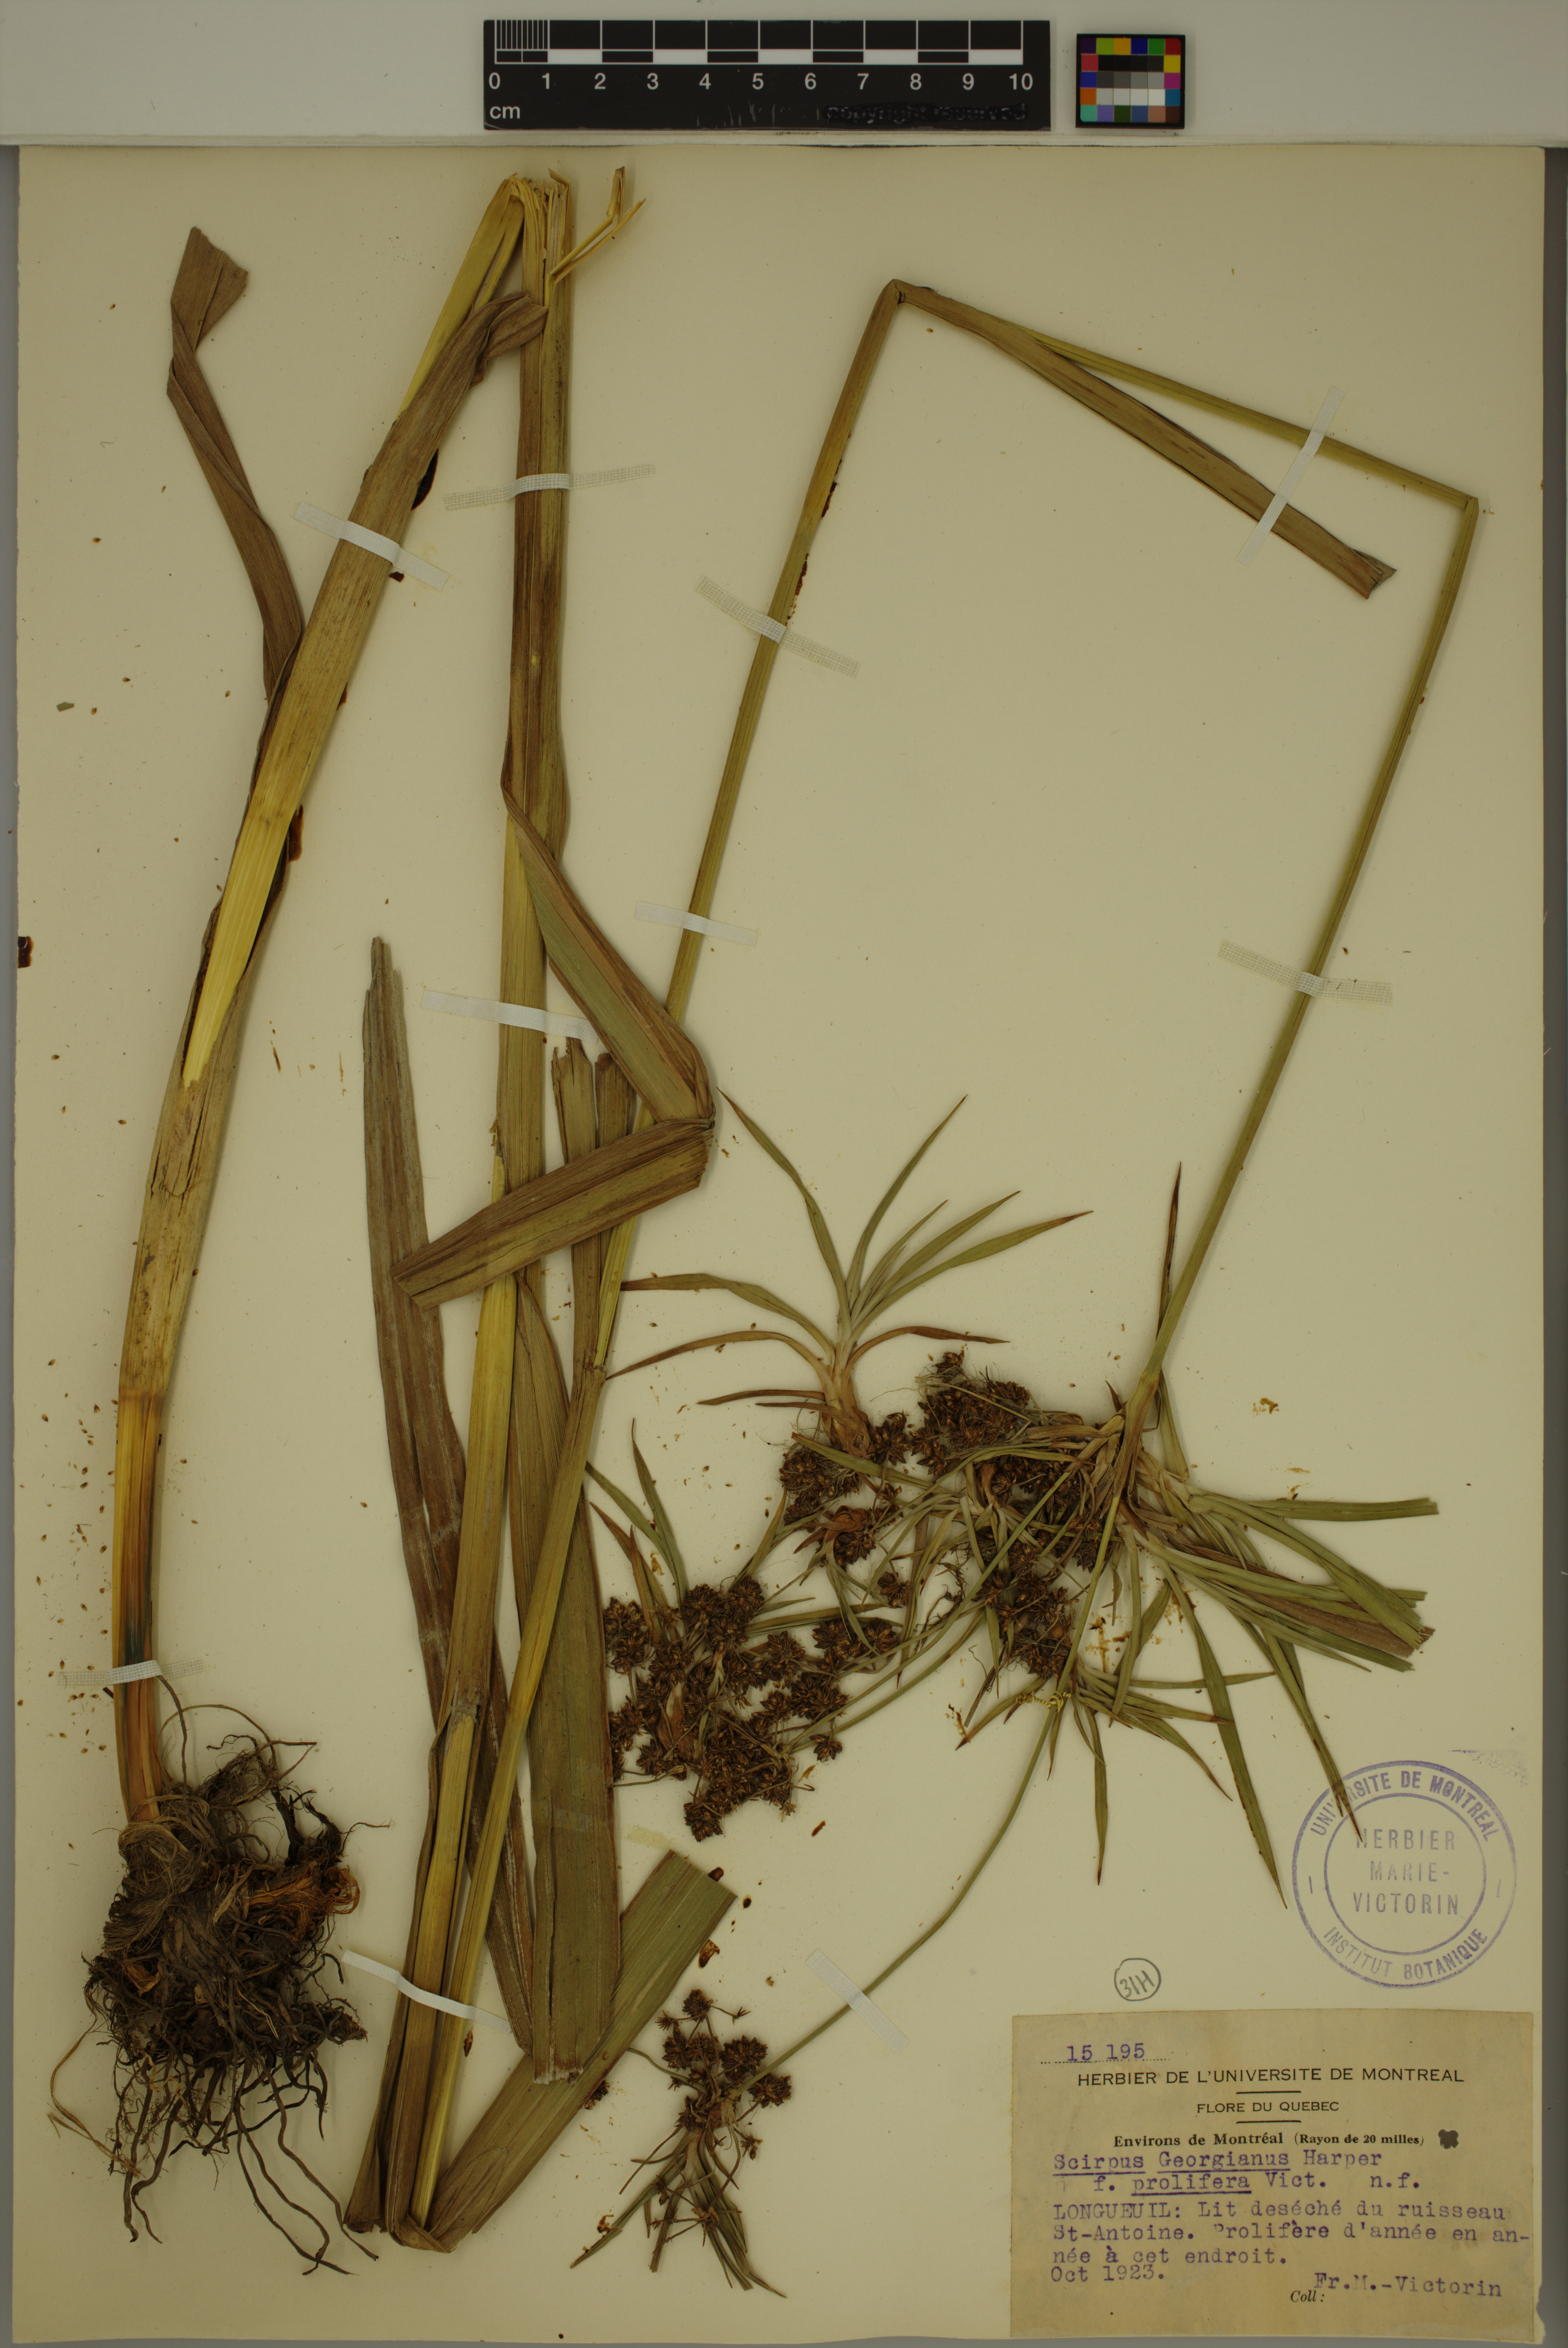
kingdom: Plantae
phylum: Tracheophyta
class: Liliopsida
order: Poales
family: Cyperaceae
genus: Scirpus
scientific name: Scirpus hattorianus
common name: Early dark-green bulrush
